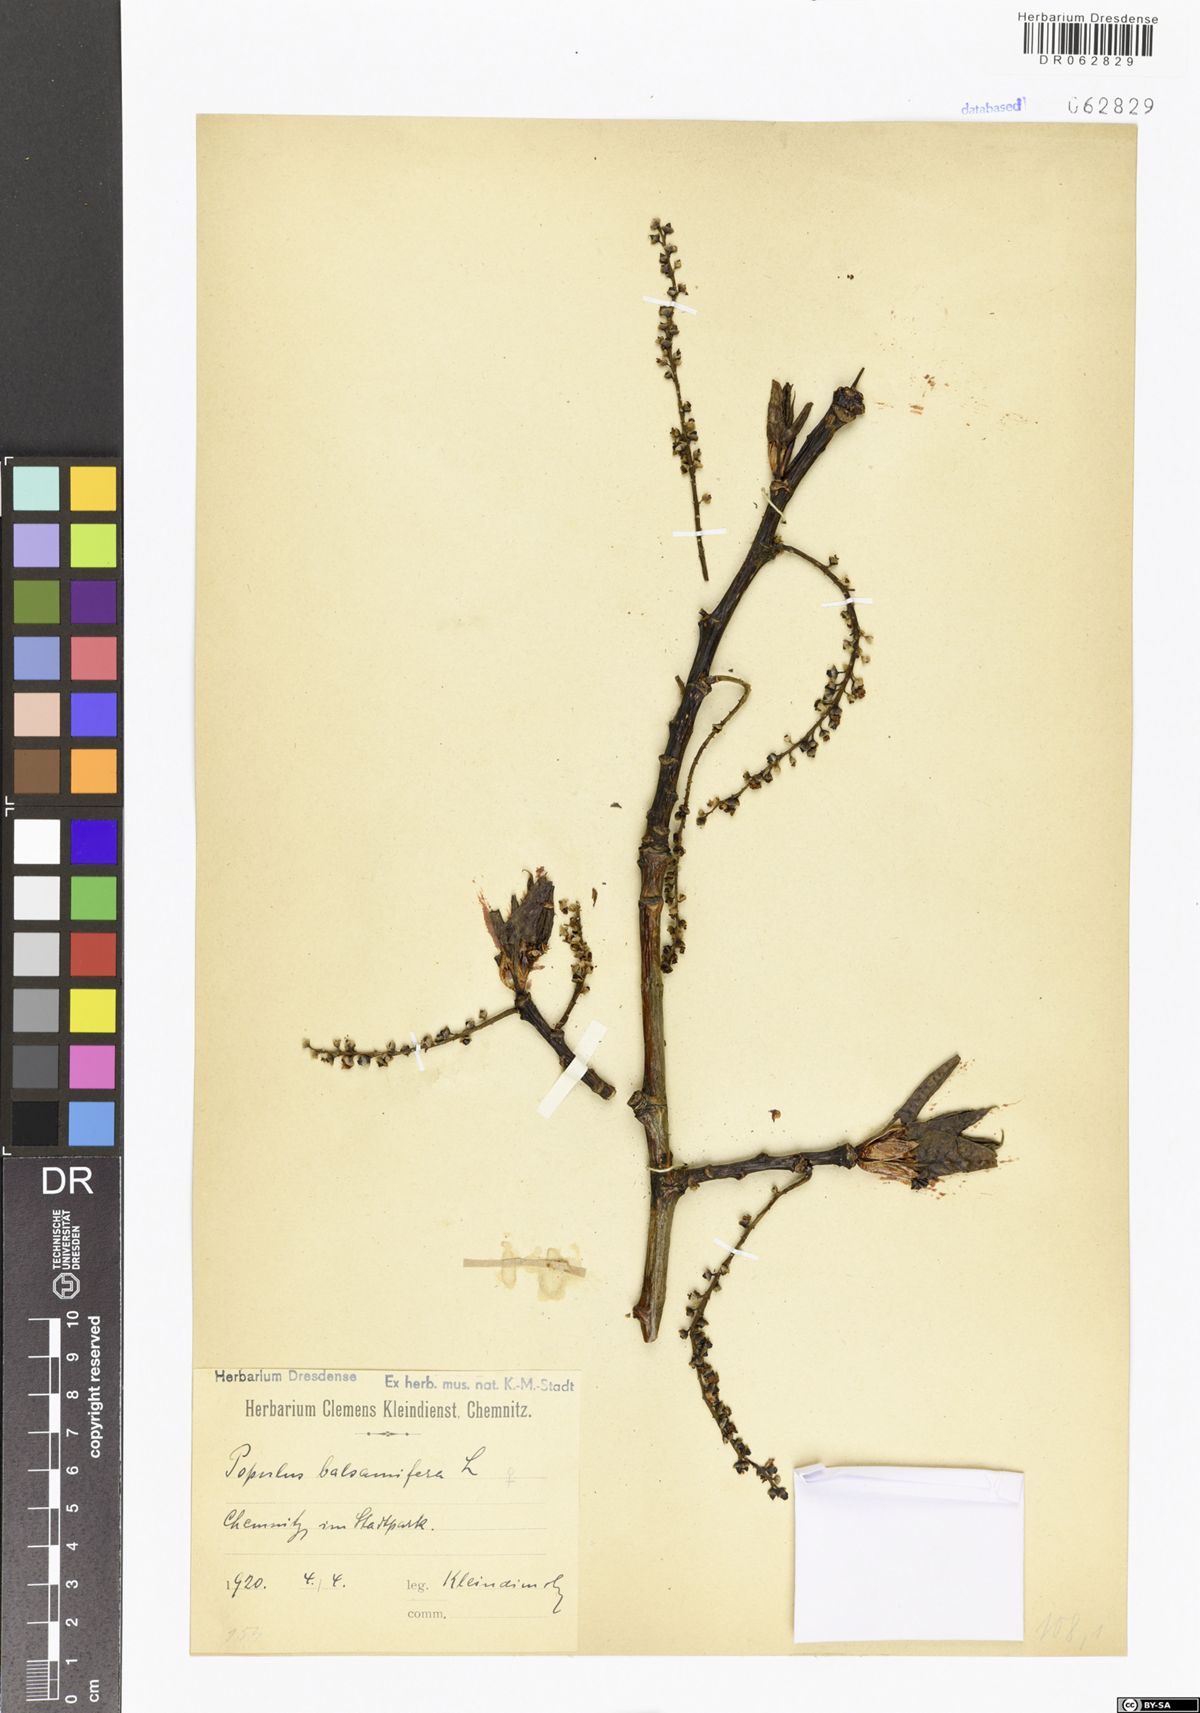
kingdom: Plantae
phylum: Tracheophyta
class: Magnoliopsida
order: Malpighiales
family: Salicaceae
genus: Populus
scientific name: Populus balsamifera
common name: Balsam poplar
